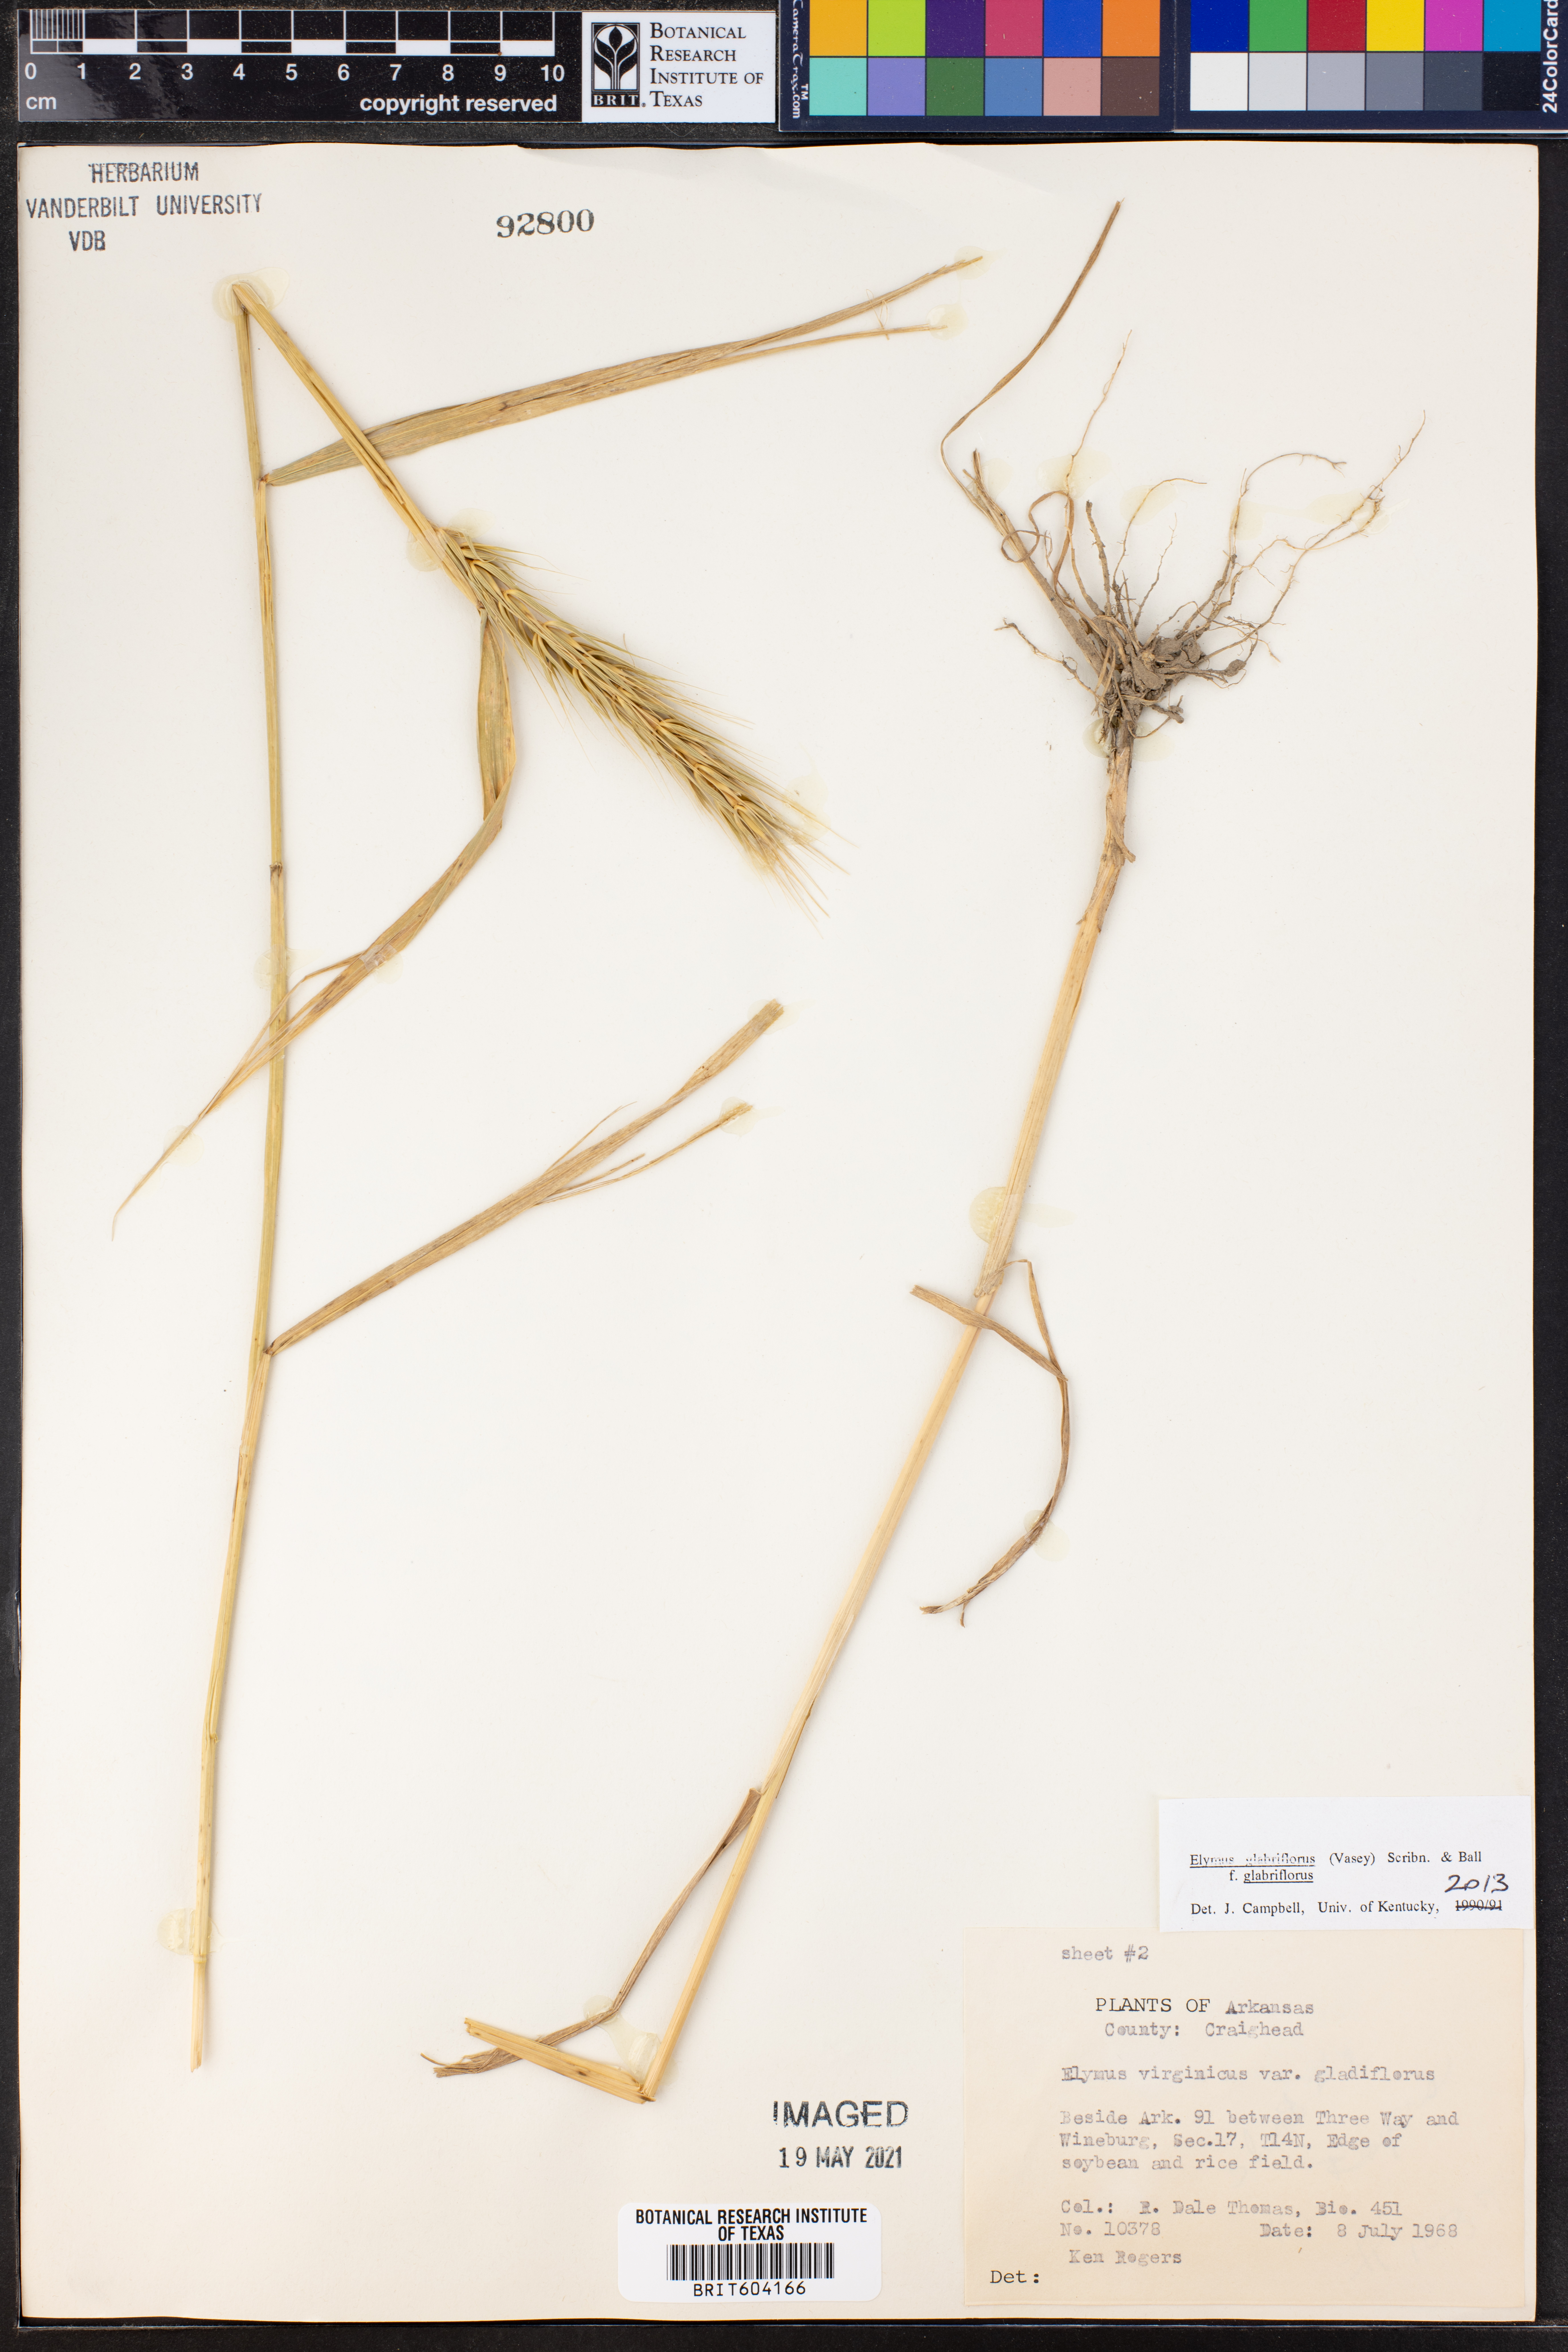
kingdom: Plantae
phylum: Tracheophyta
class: Liliopsida
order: Poales
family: Poaceae
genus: Elymus
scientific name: Elymus virginicus
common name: Common eastern wildrye
